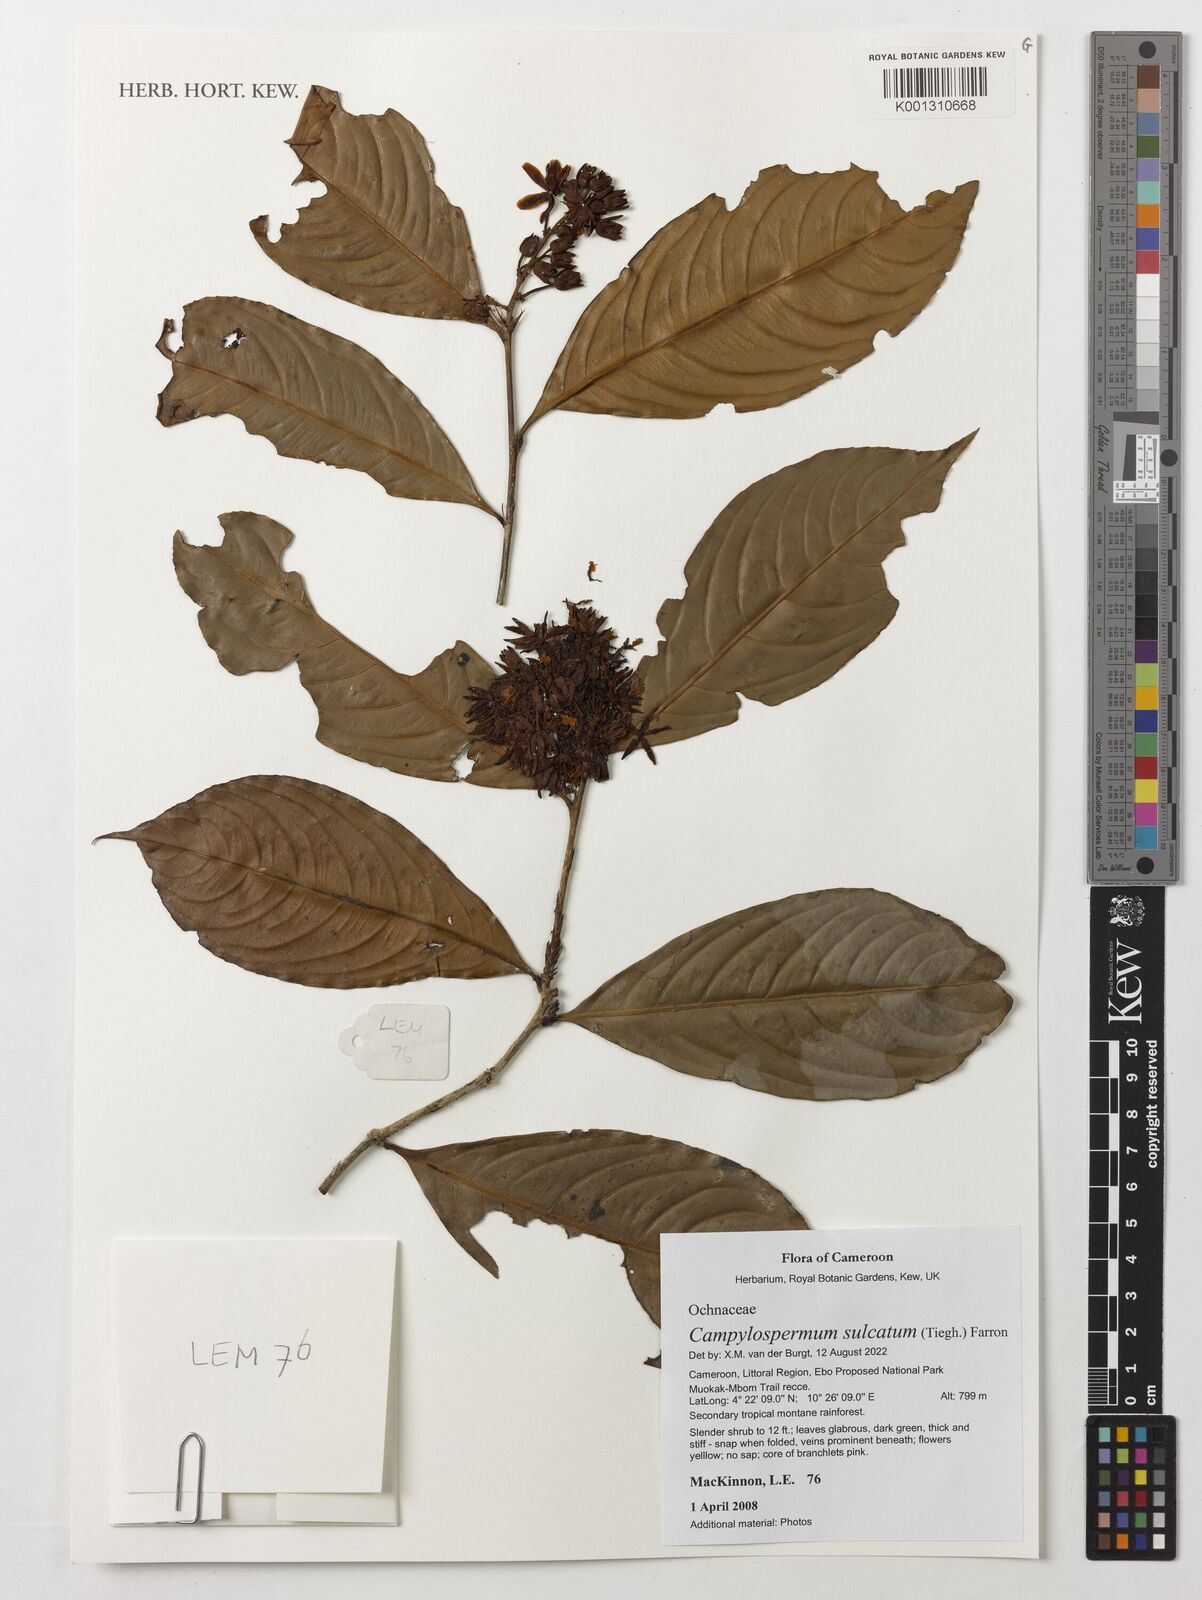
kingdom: Plantae
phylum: Tracheophyta
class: Magnoliopsida
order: Malpighiales
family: Ochnaceae
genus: Campylospermum
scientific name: Campylospermum sulcatum
